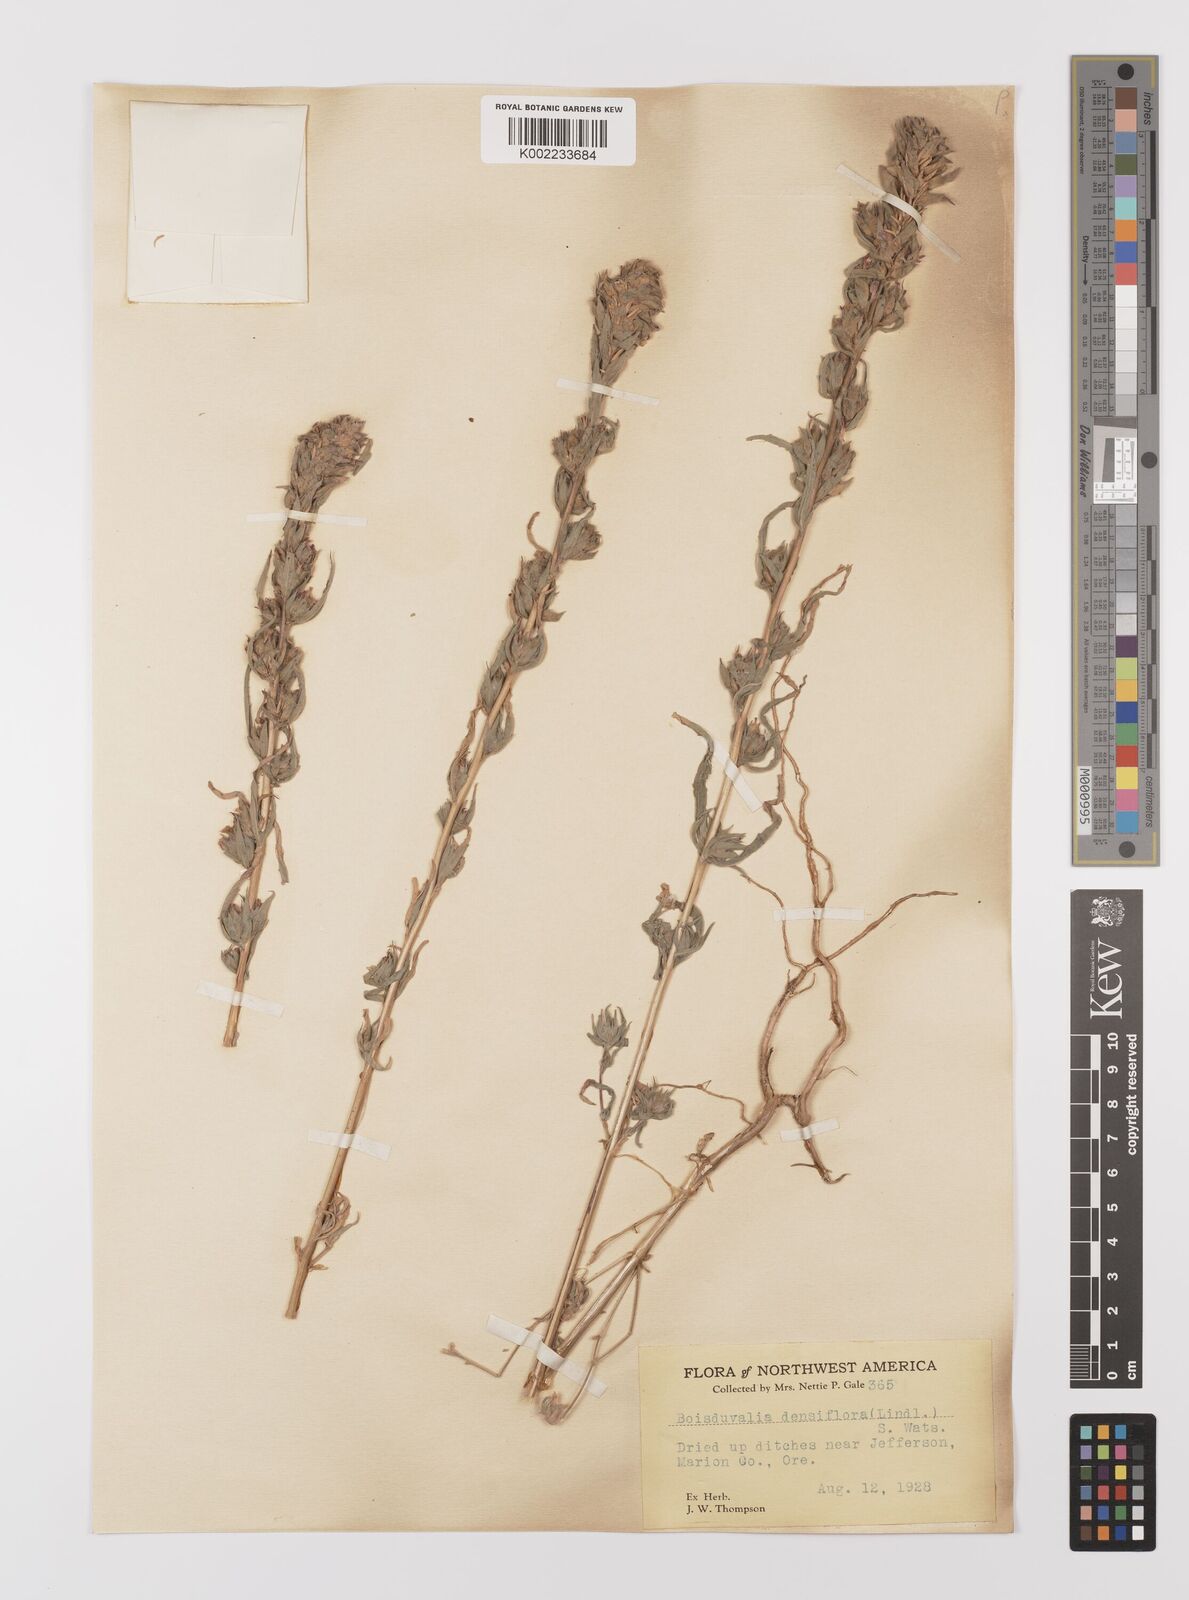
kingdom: Plantae
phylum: Tracheophyta
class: Magnoliopsida
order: Myrtales
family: Onagraceae
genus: Epilobium
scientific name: Epilobium densiflorum
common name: Dense spike-primrose
